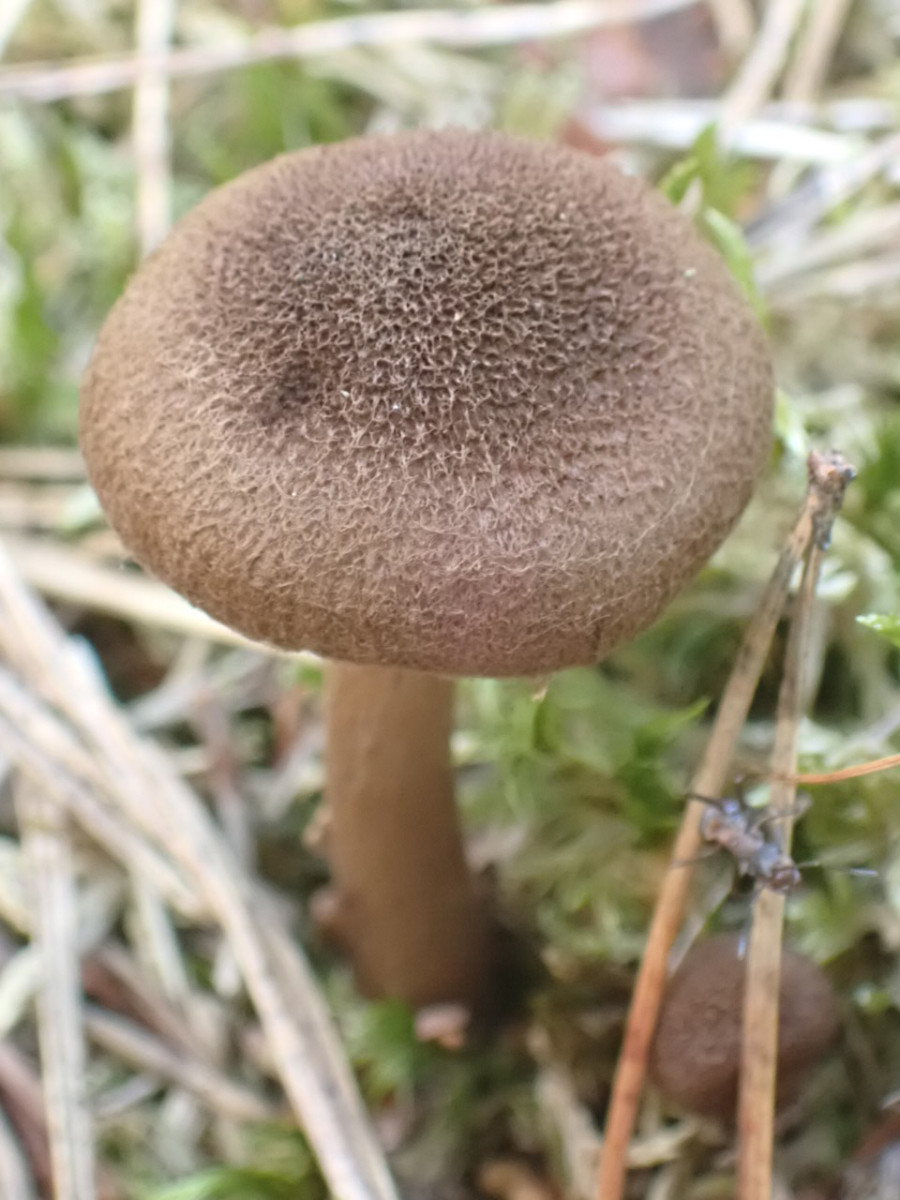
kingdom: Fungi
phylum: Basidiomycota
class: Agaricomycetes
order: Agaricales
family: Inocybaceae
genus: Inocybe
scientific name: Inocybe
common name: trævlhat
